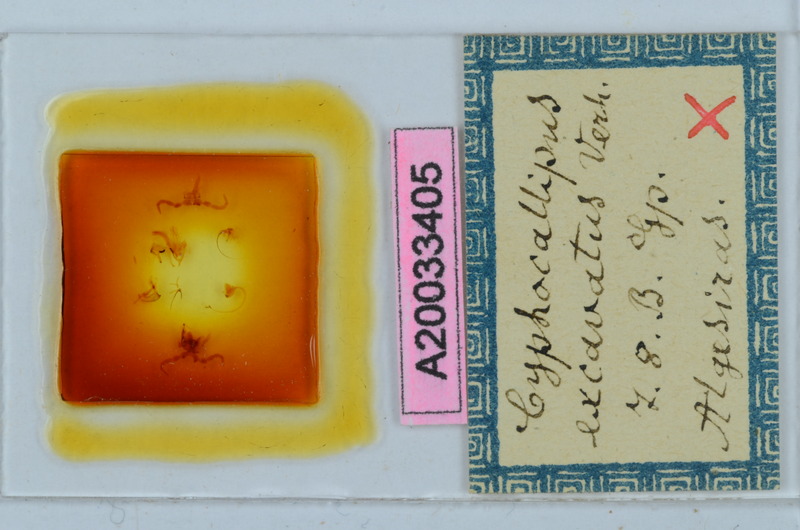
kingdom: Animalia
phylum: Arthropoda
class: Diplopoda
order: Callipodida
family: Dorypetalidae
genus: Cyphocallipus
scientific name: Cyphocallipus excavatus
